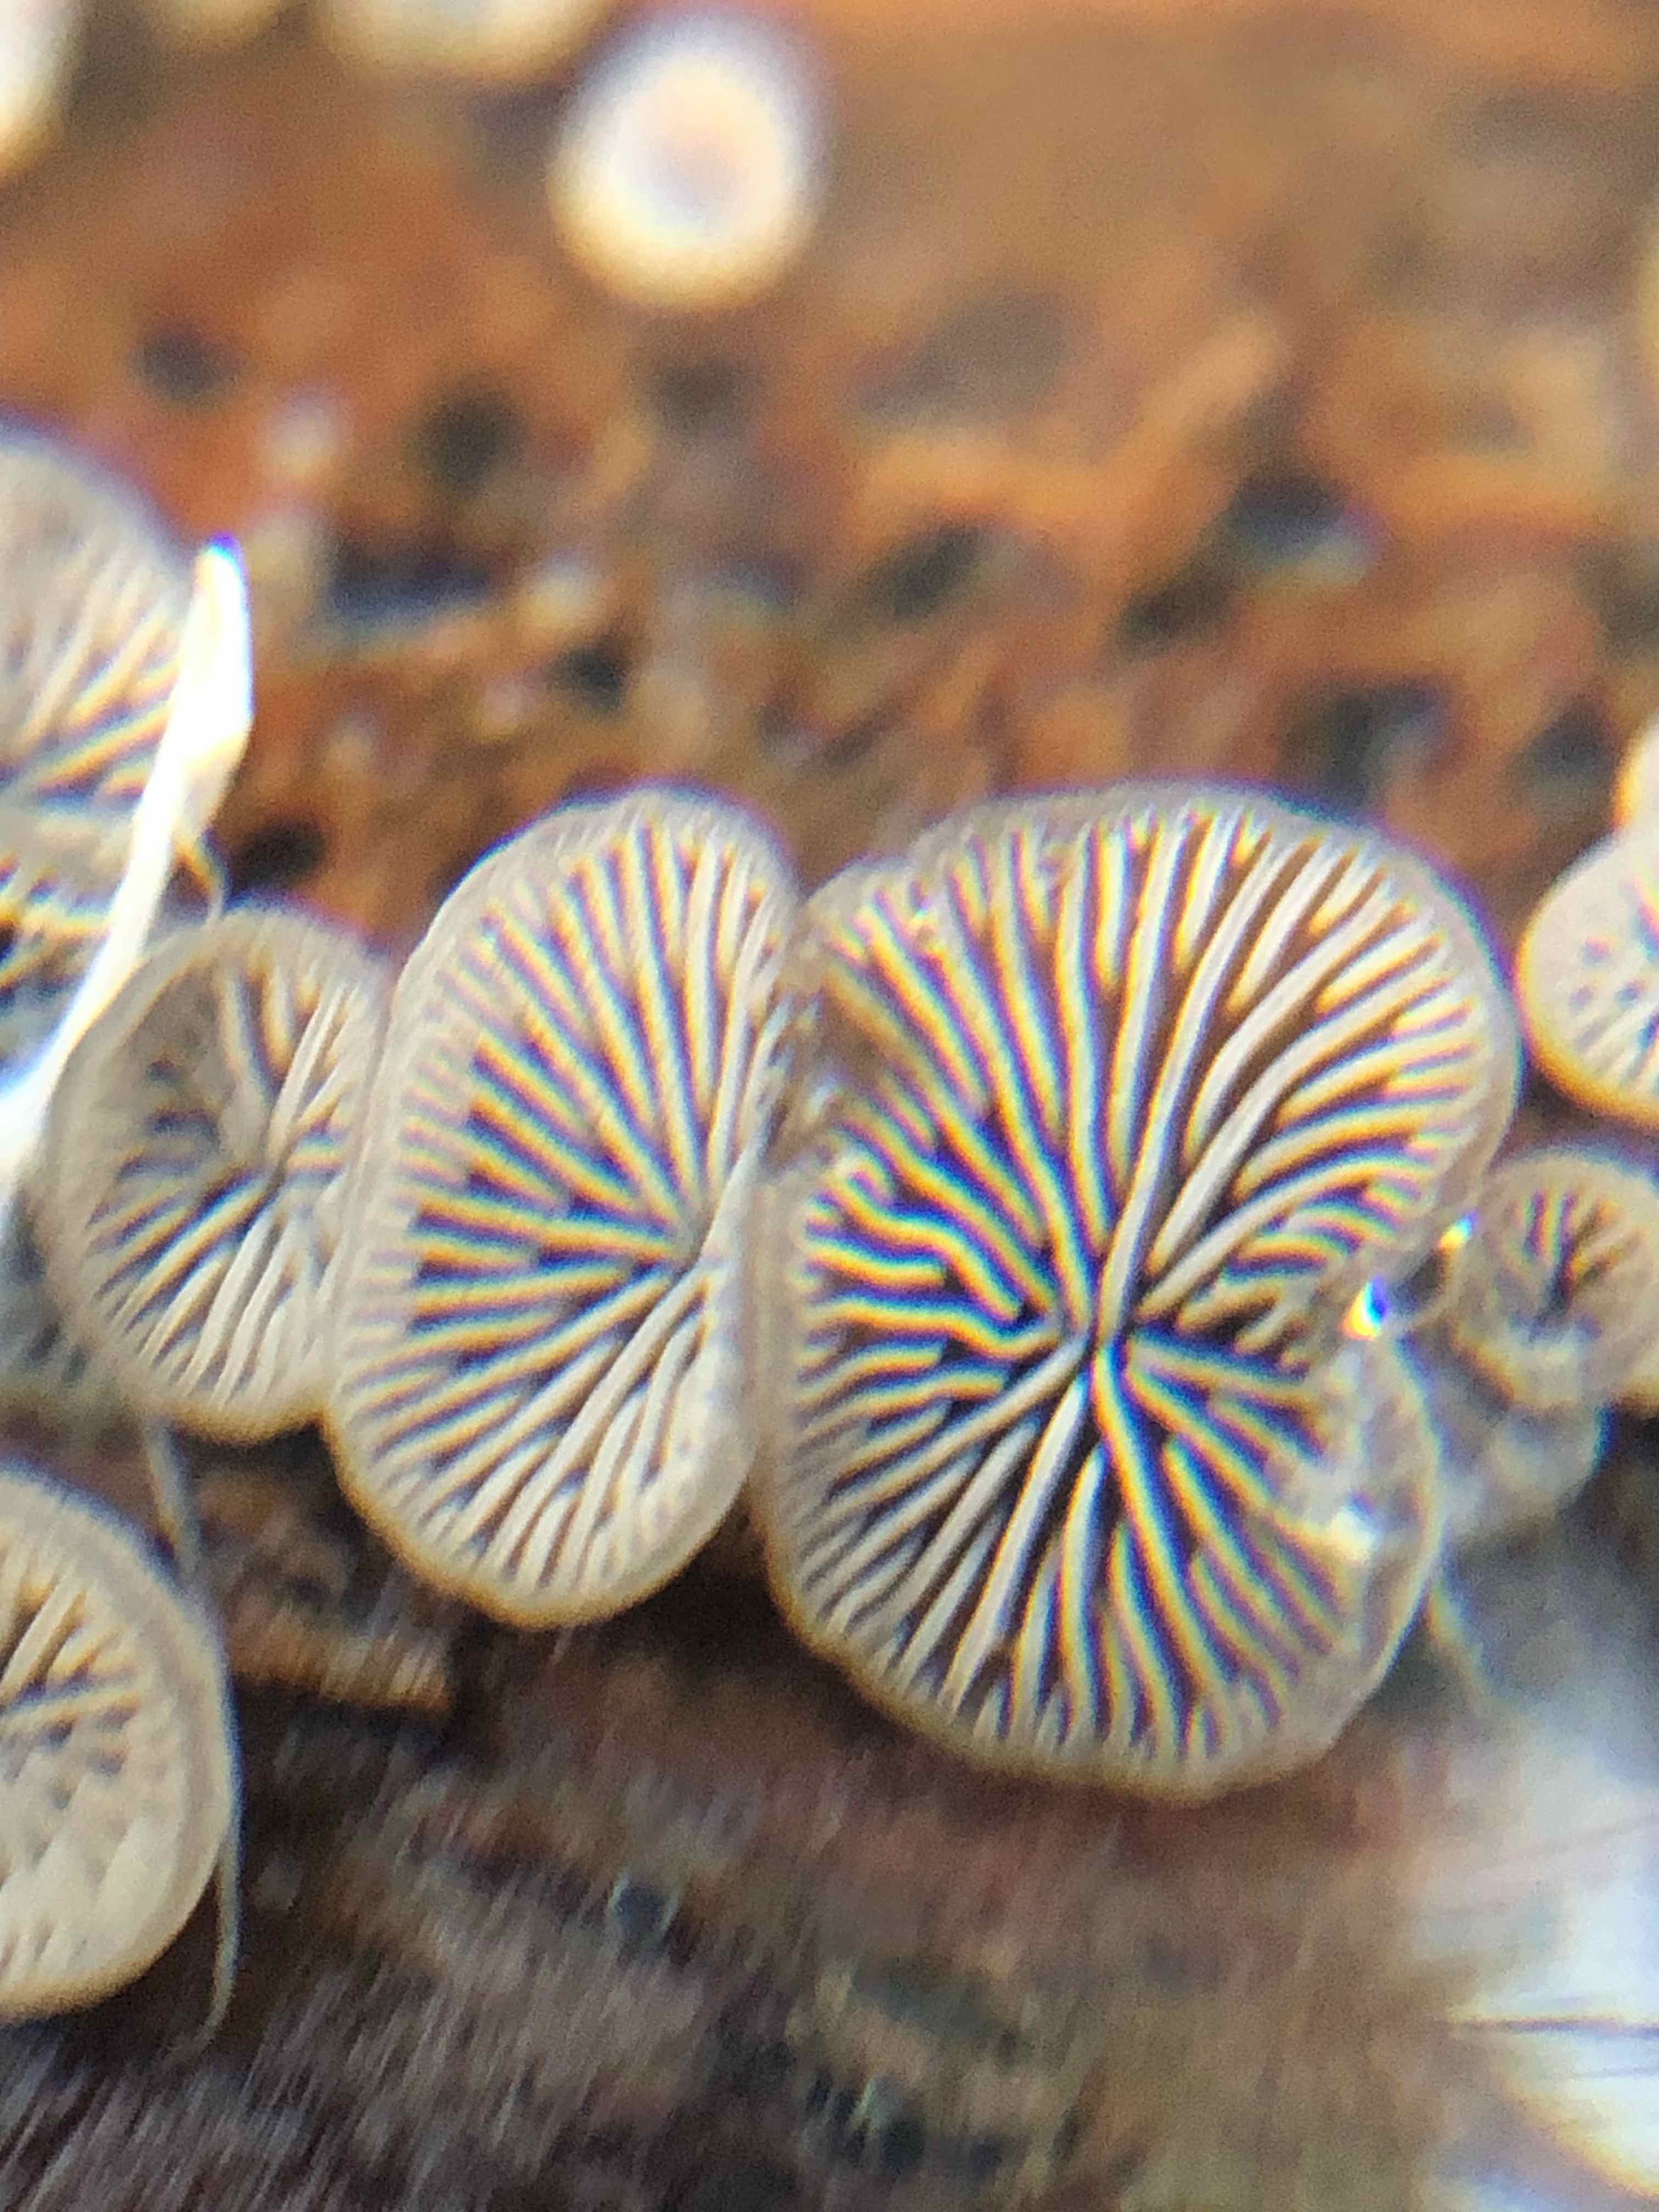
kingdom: Fungi
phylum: Basidiomycota
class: Agaricomycetes
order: Agaricales
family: Pleurotaceae
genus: Resupinatus
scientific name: Resupinatus
